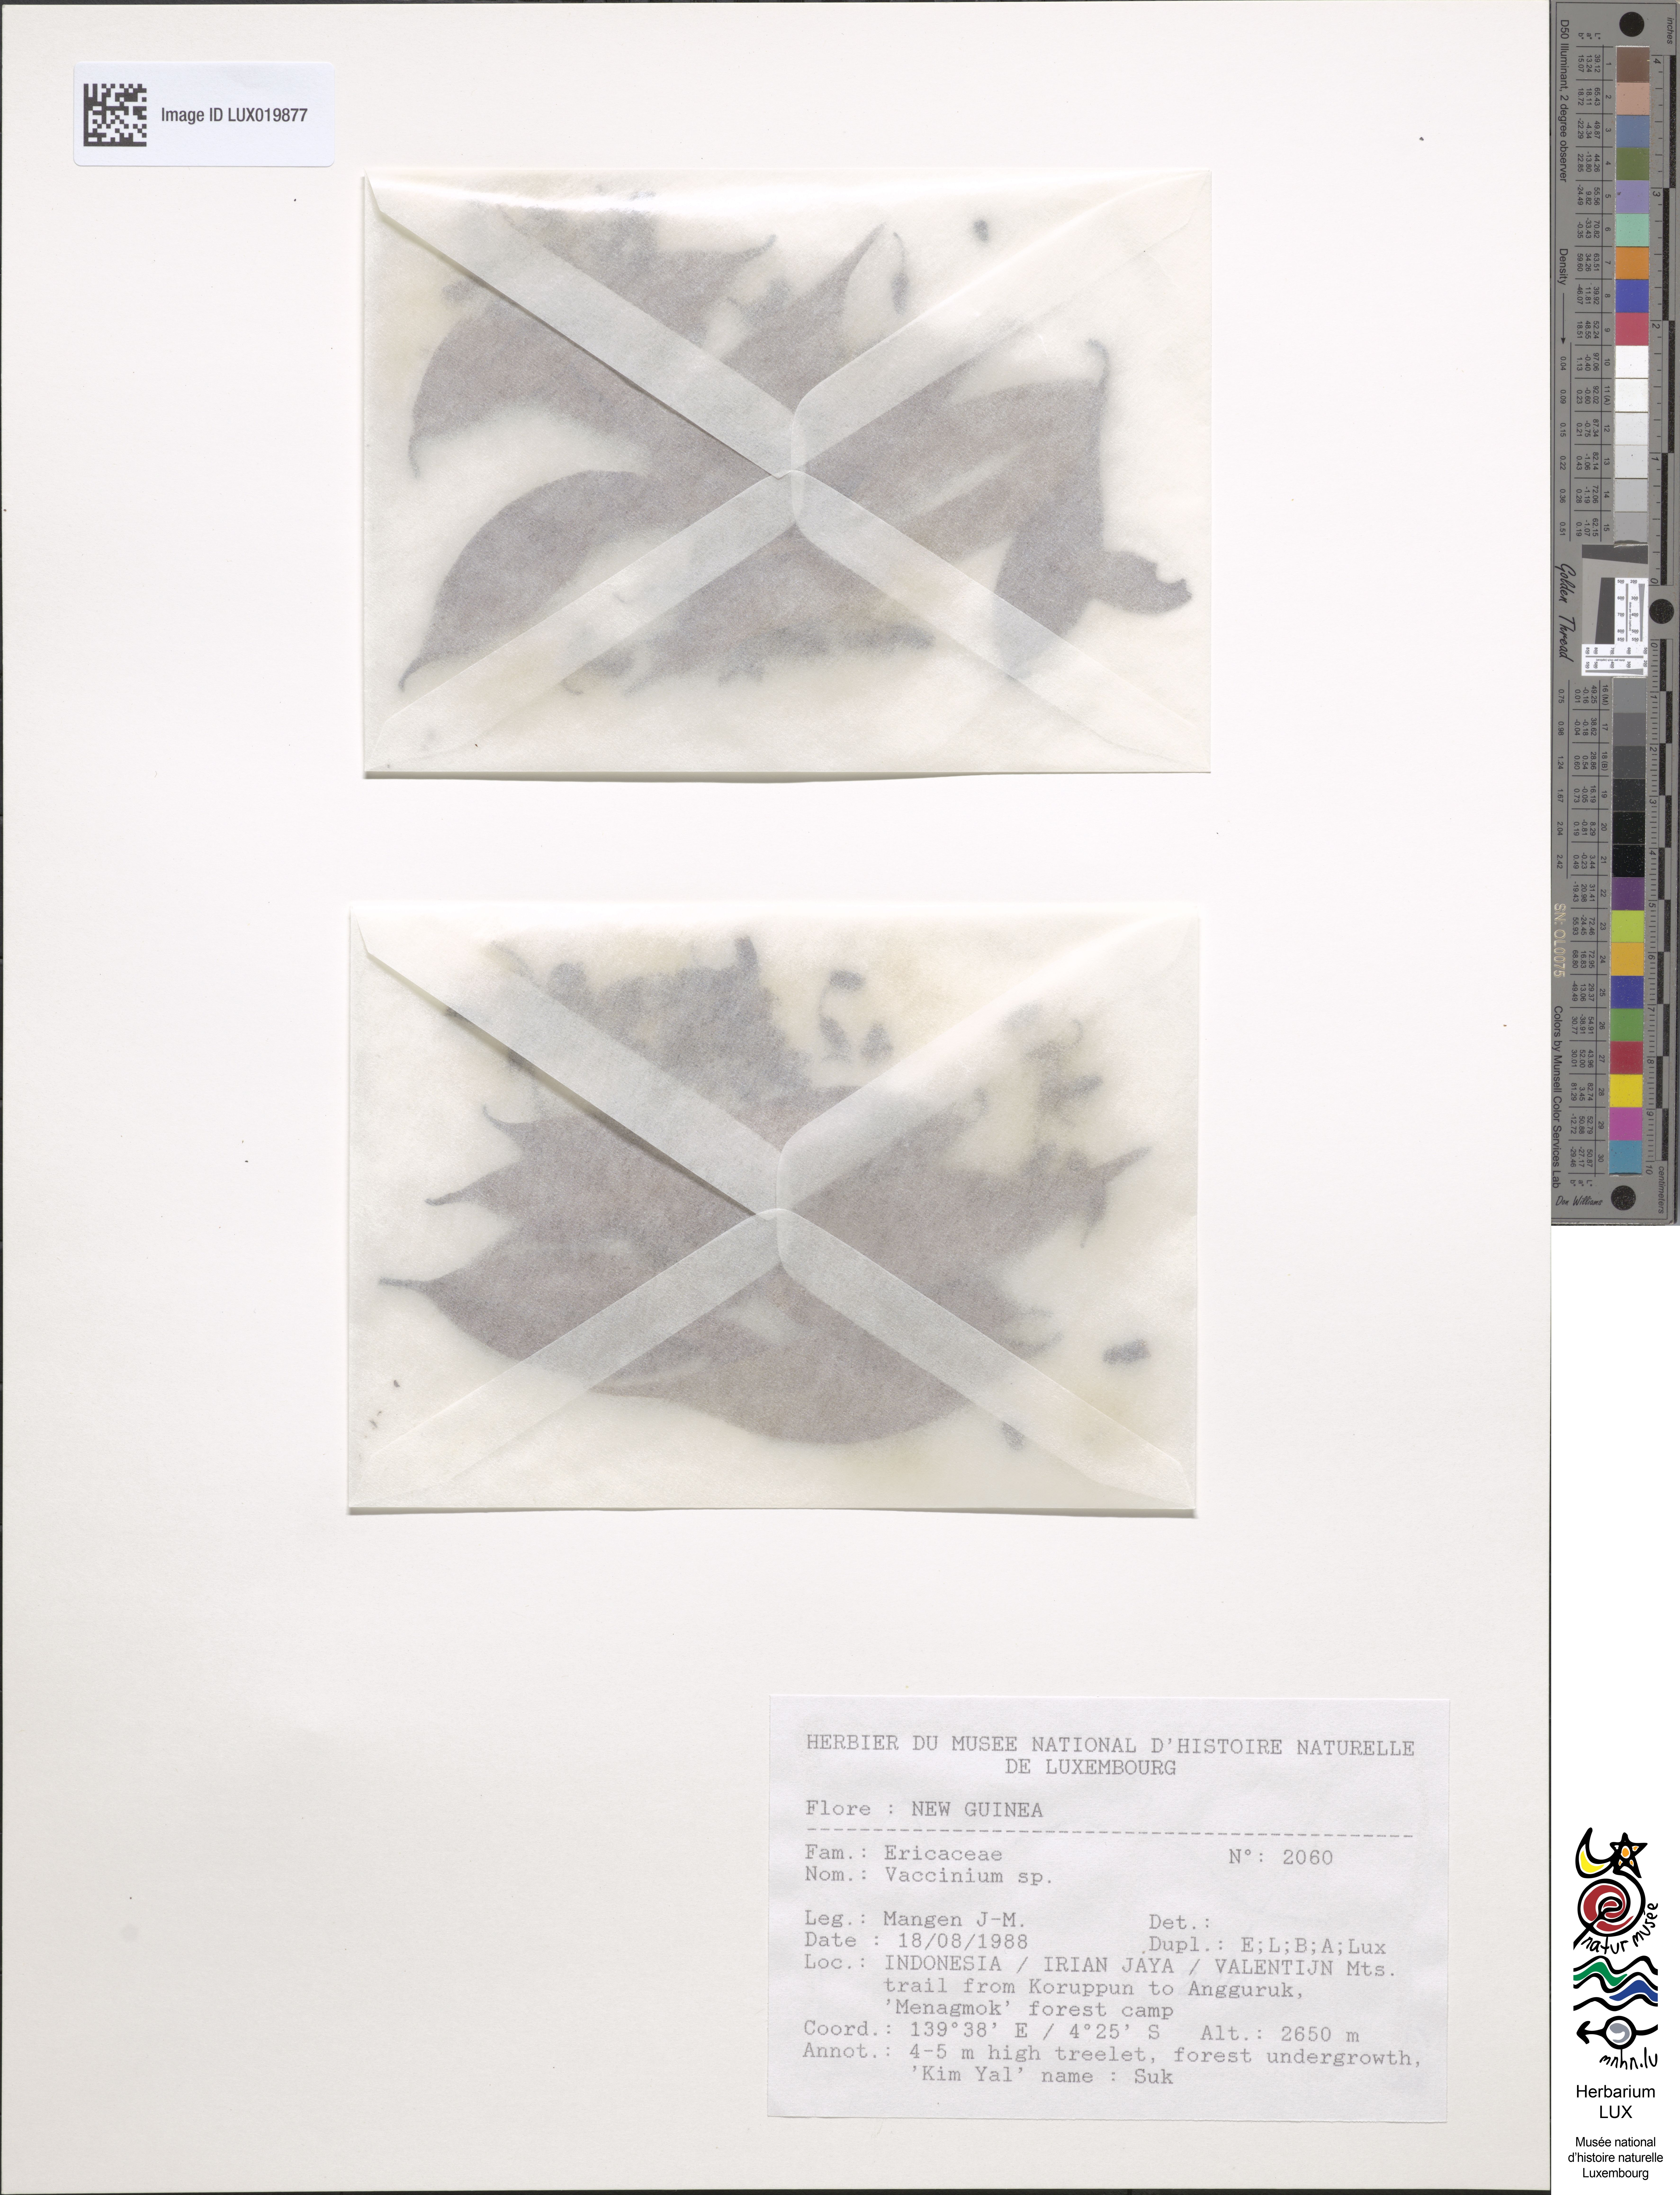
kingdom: Plantae
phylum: Tracheophyta
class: Magnoliopsida
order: Ericales
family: Ericaceae
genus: Vaccinium
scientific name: Vaccinium
